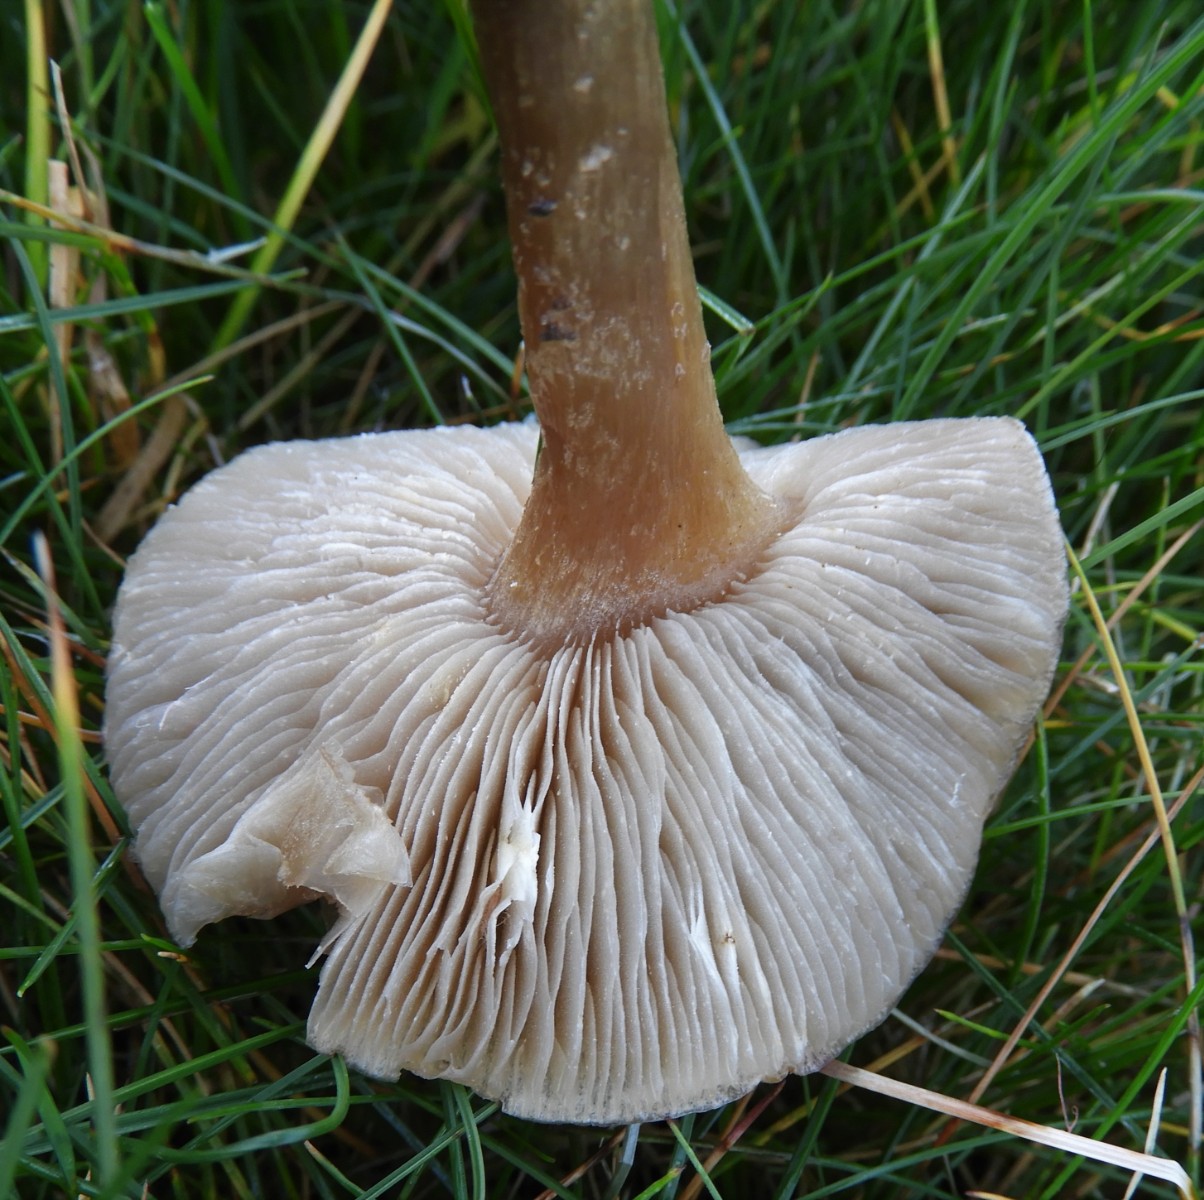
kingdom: Fungi
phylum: Basidiomycota
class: Agaricomycetes
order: Agaricales
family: Tricholomataceae
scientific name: Tricholomataceae
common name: ridderhatfamilien
